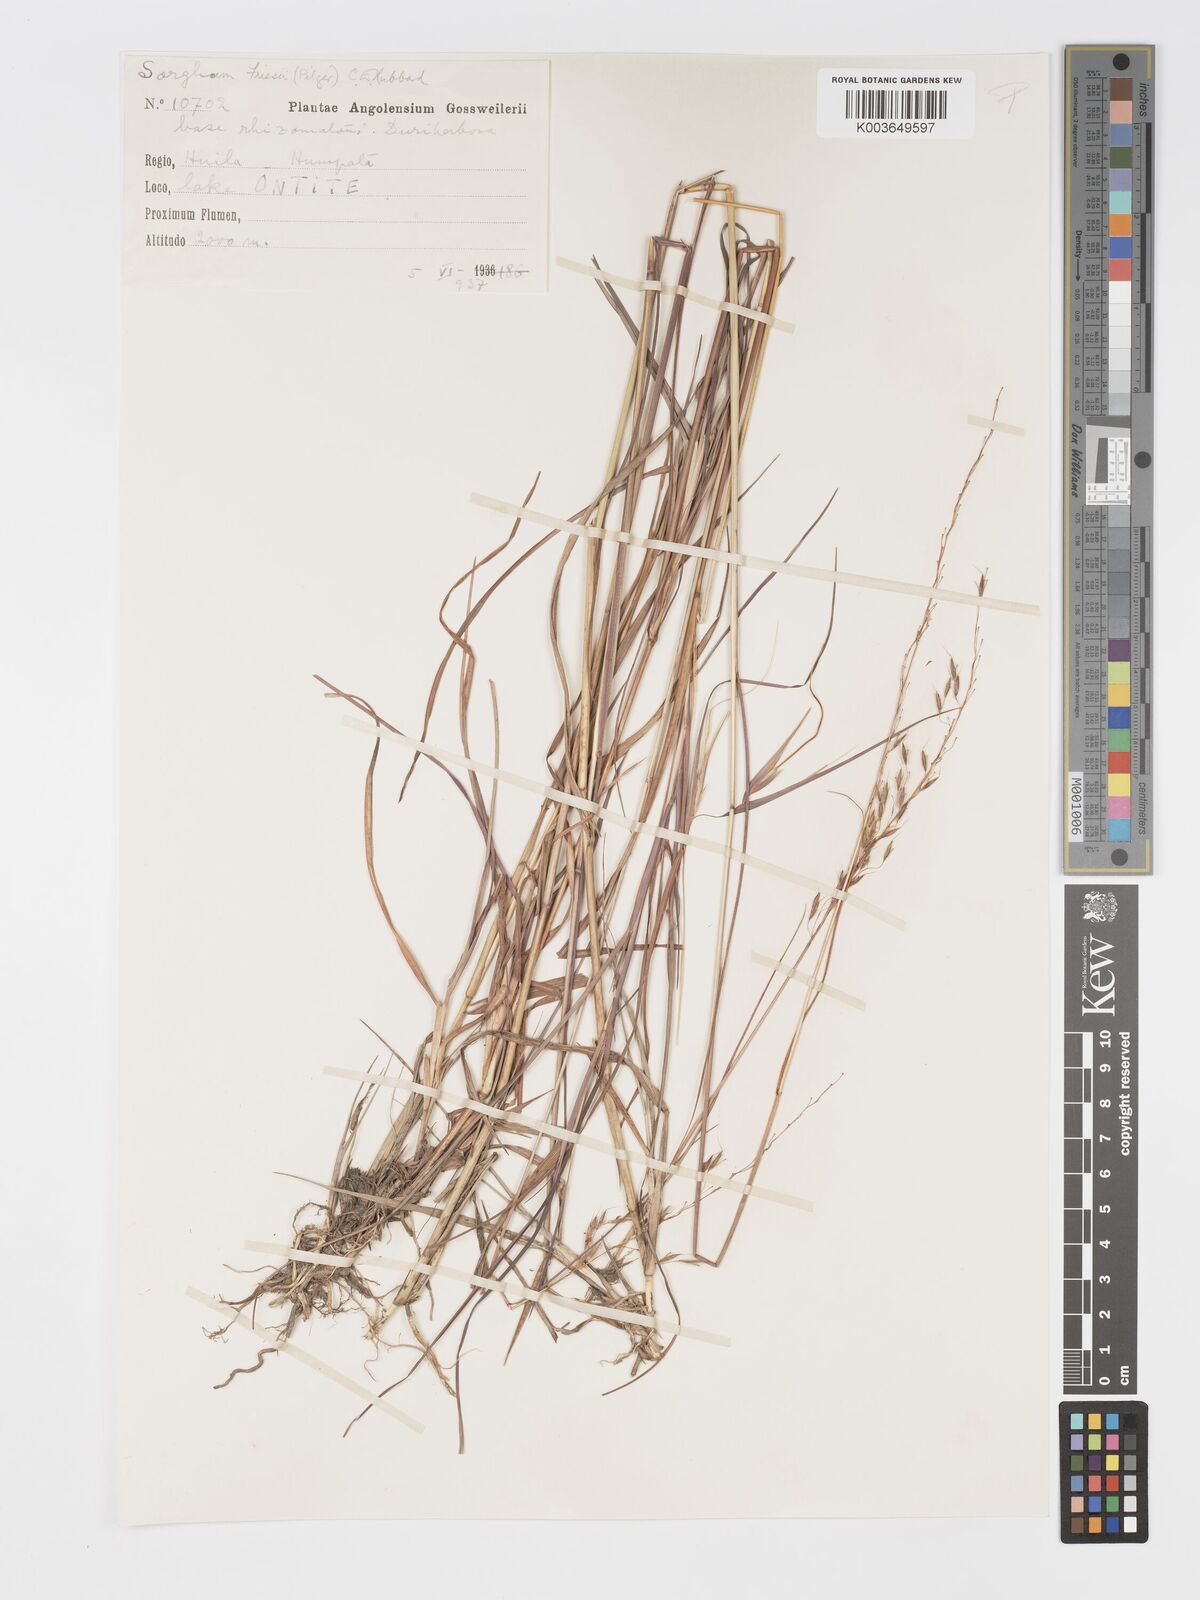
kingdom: Plantae
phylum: Tracheophyta
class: Liliopsida
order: Poales
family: Poaceae
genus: Sorghastrum
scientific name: Sorghastrum nudipes
